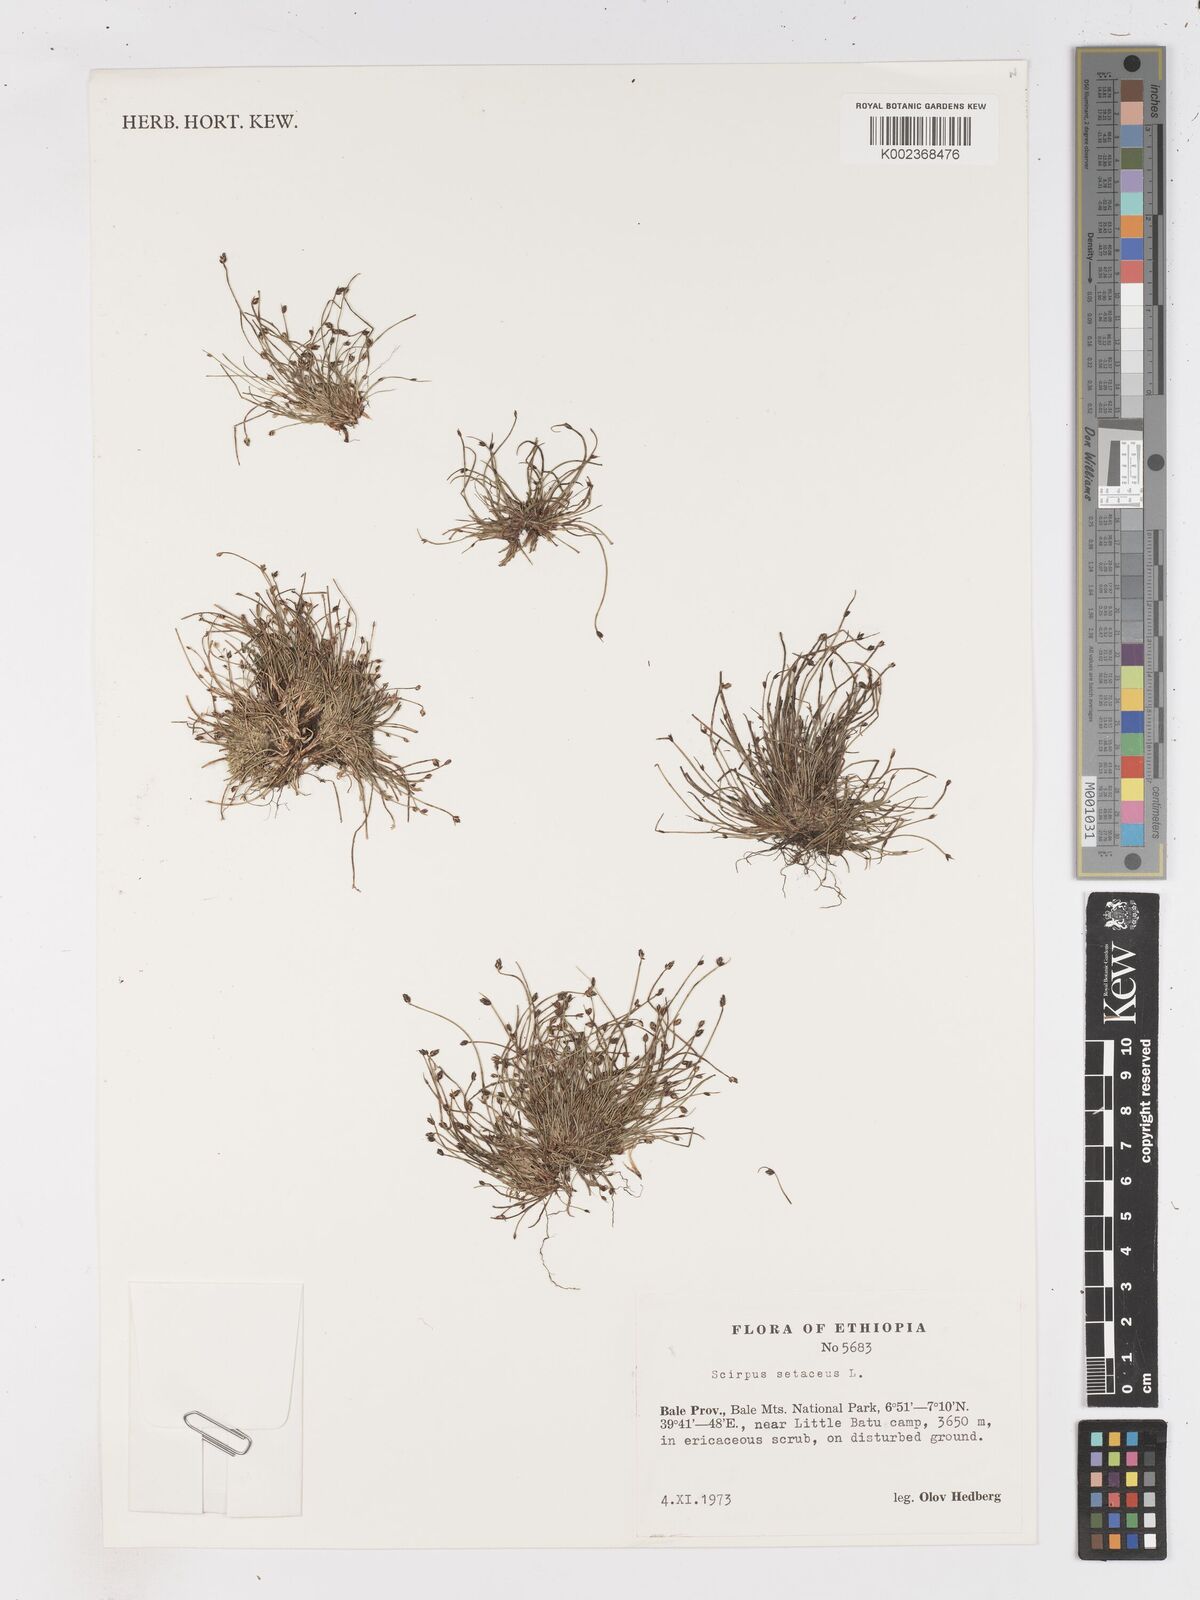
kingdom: Plantae
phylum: Tracheophyta
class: Liliopsida
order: Poales
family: Cyperaceae
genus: Isolepis
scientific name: Isolepis setacea
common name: Bristle club-rush
